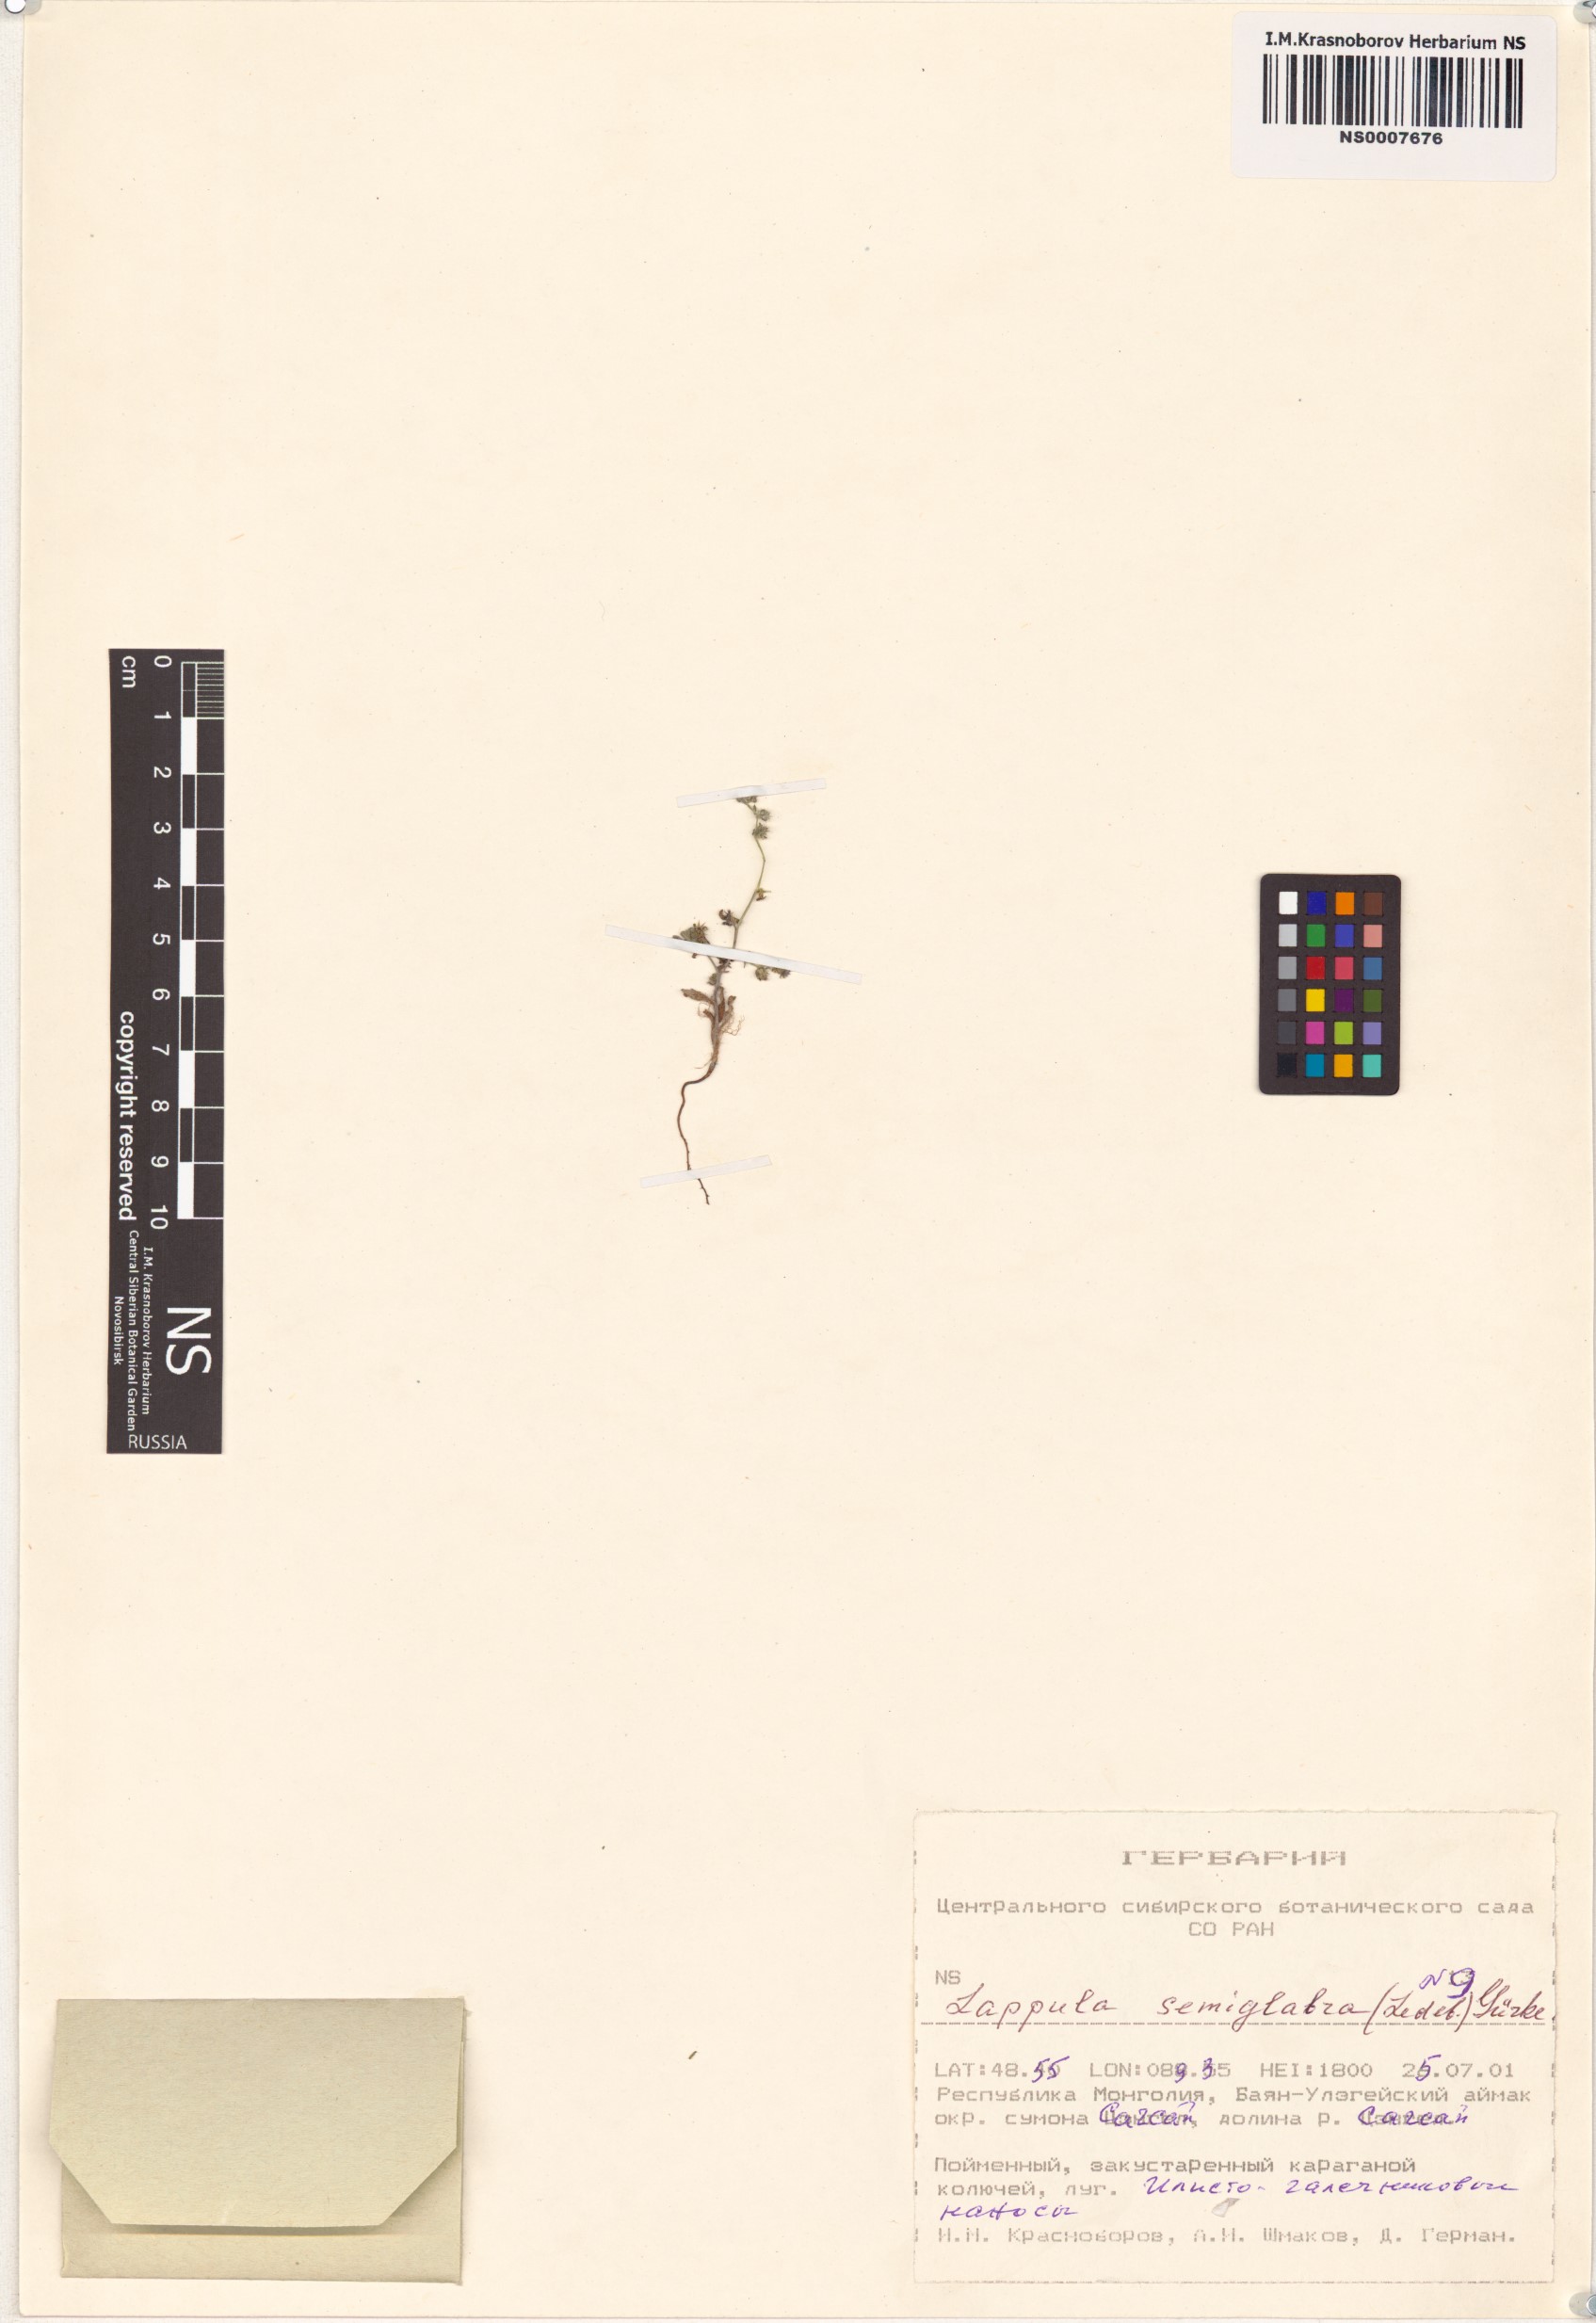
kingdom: Plantae
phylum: Tracheophyta
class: Magnoliopsida
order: Boraginales
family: Boraginaceae
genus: Lappula
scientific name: Lappula patula
